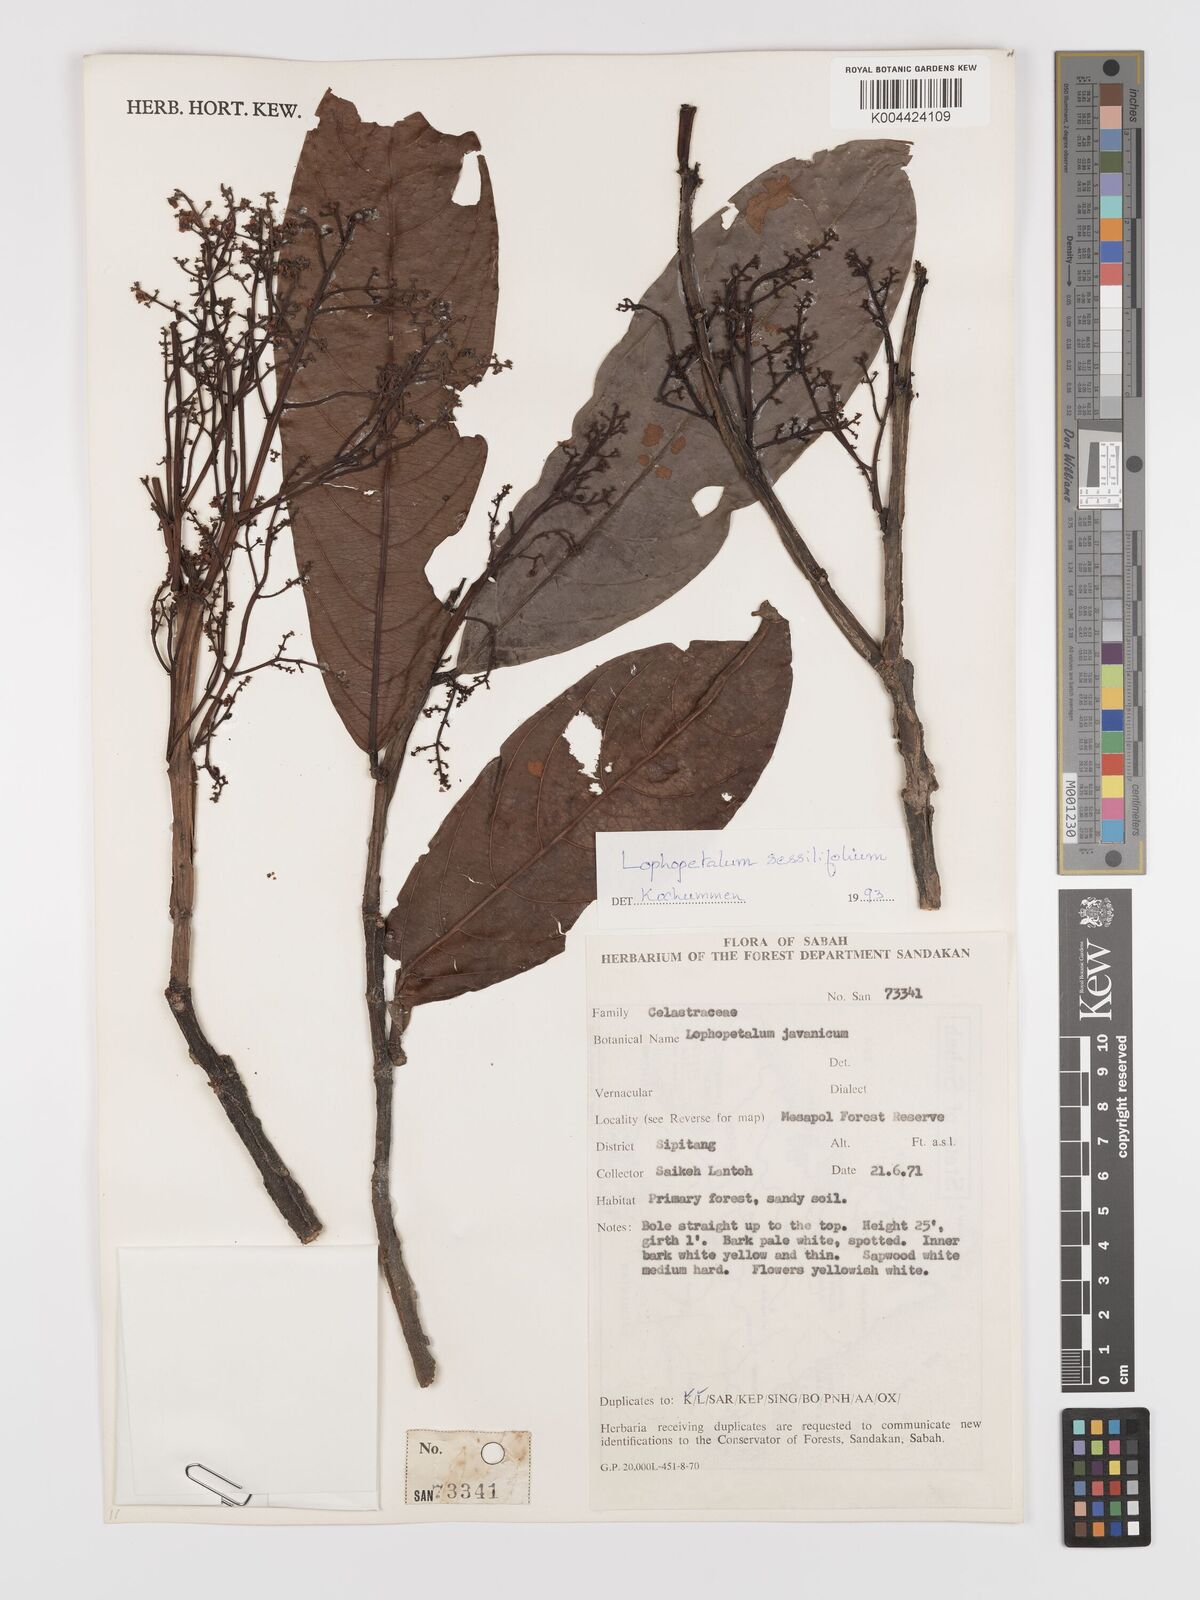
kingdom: Plantae
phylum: Tracheophyta
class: Magnoliopsida
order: Celastrales
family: Celastraceae
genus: Lophopetalum
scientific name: Lophopetalum sessilifolium
